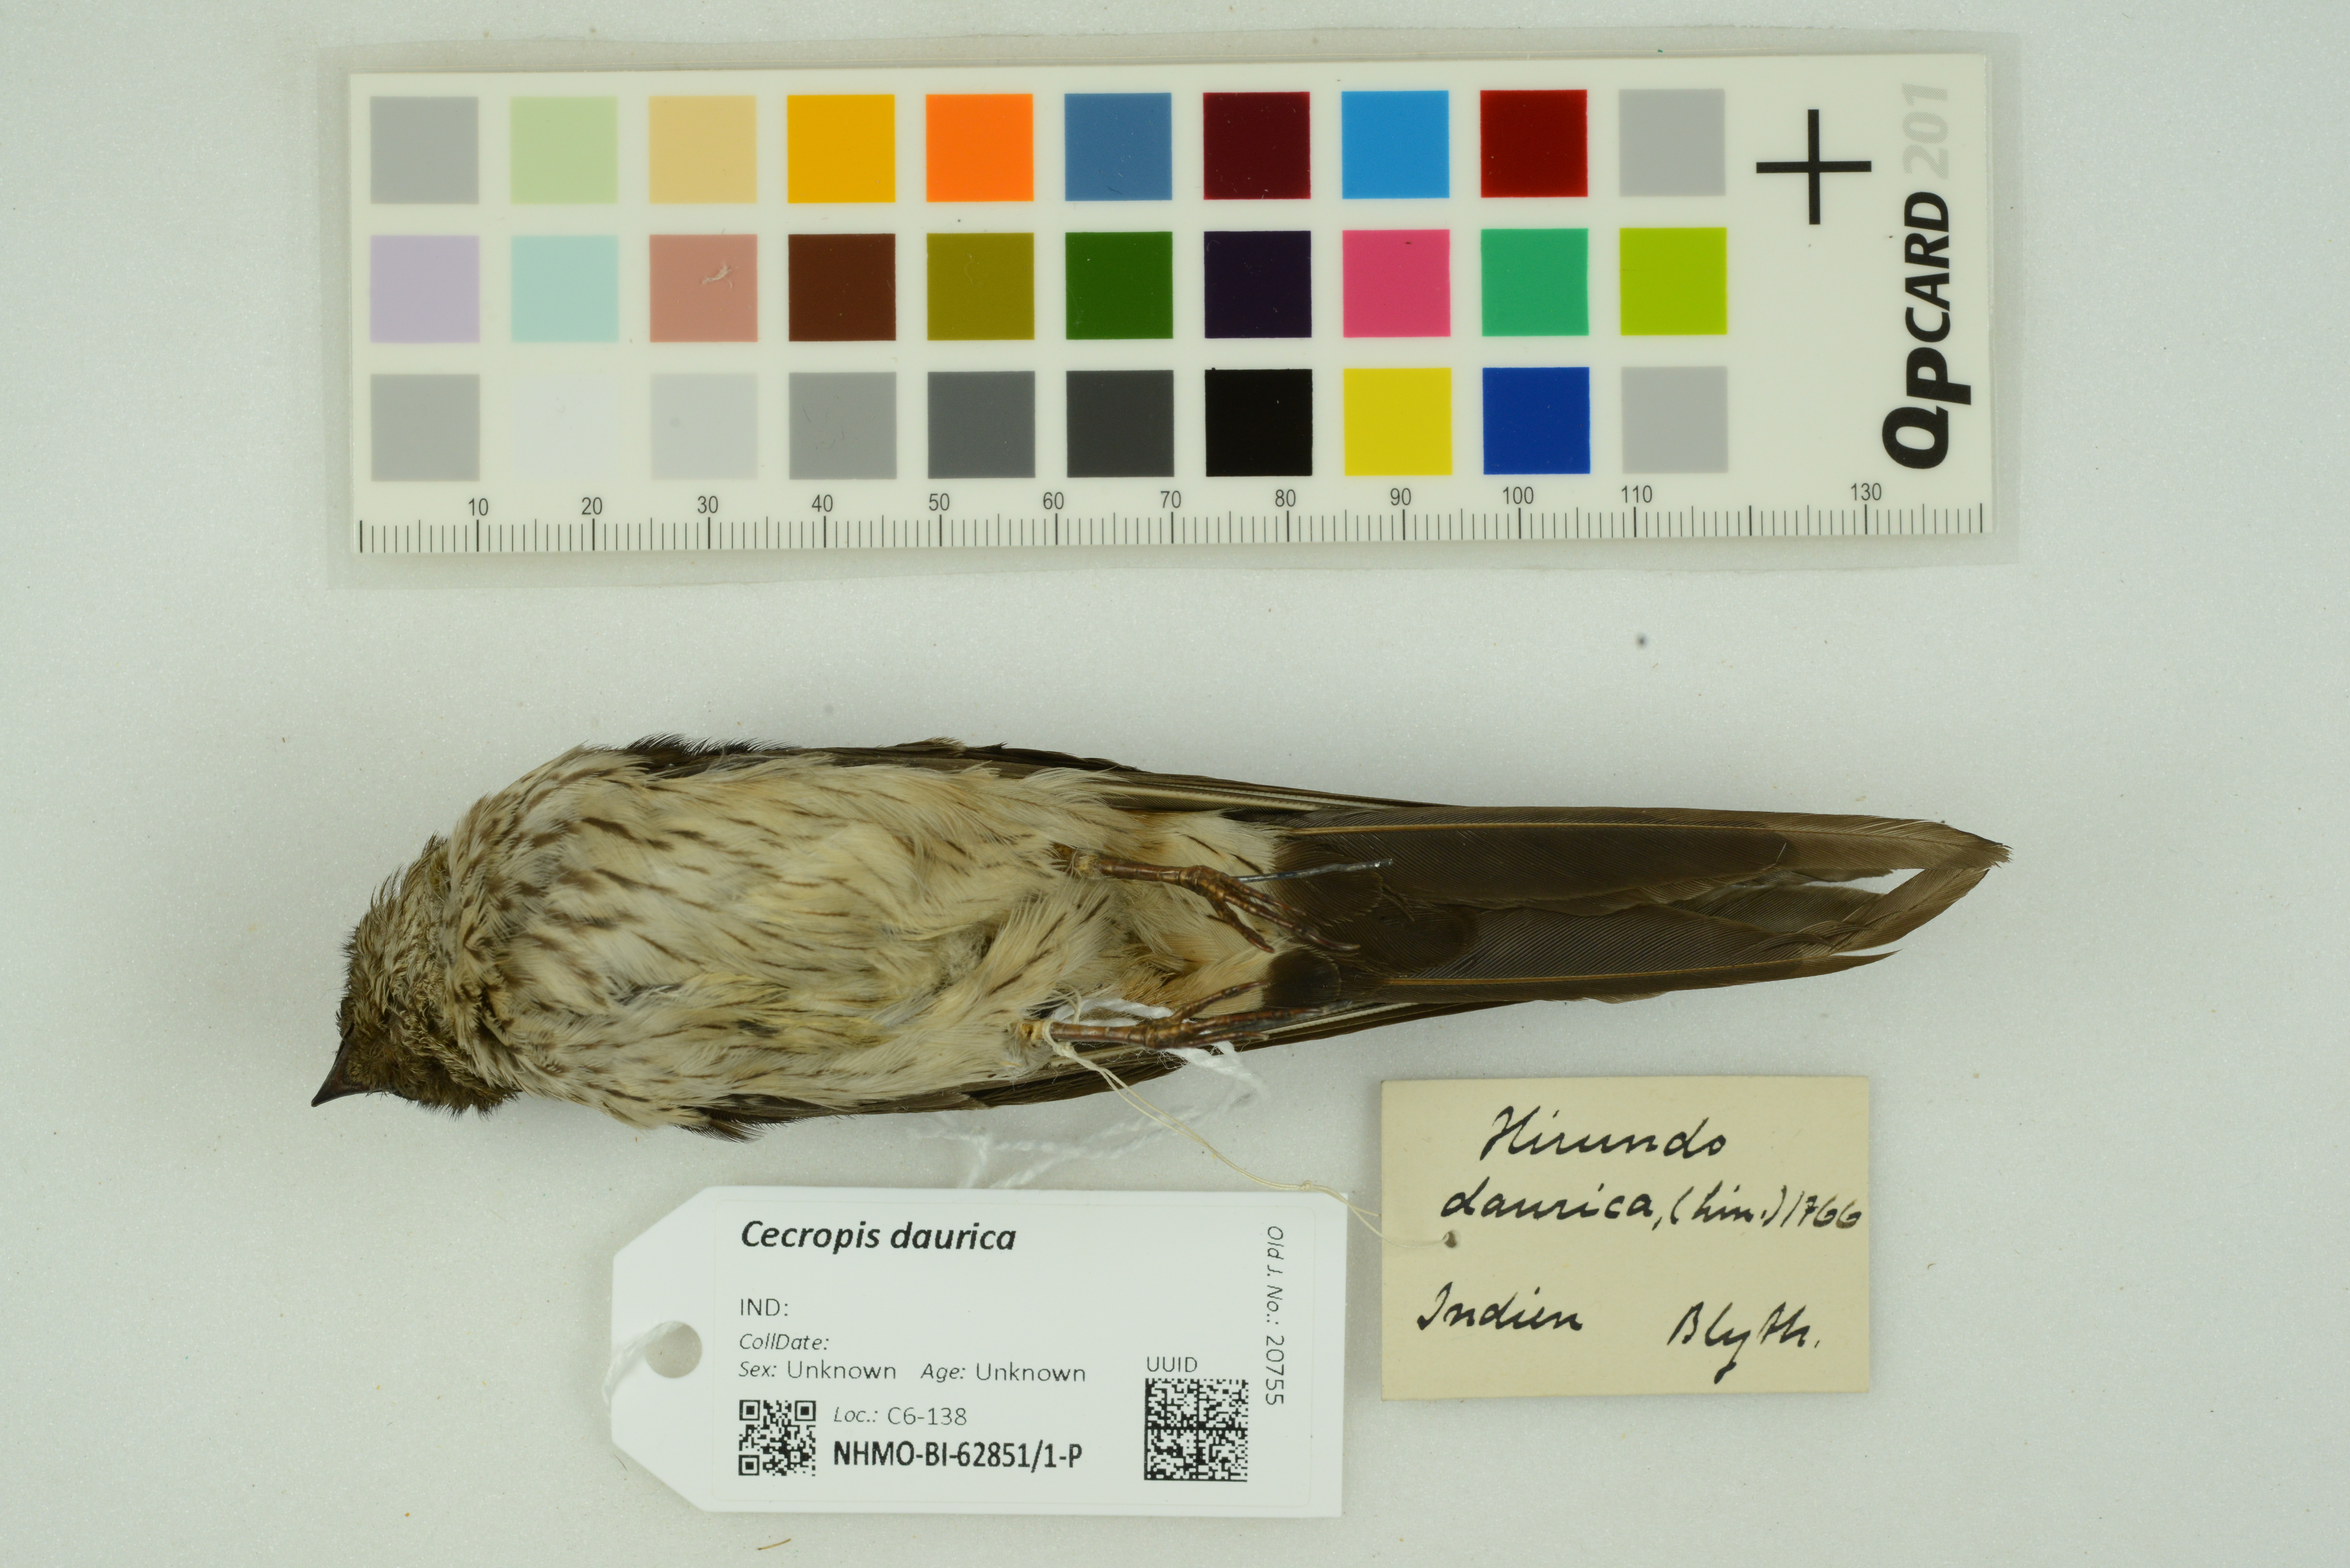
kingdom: Animalia
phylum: Chordata
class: Aves
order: Passeriformes
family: Hirundinidae
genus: Cecropis
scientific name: Cecropis daurica
